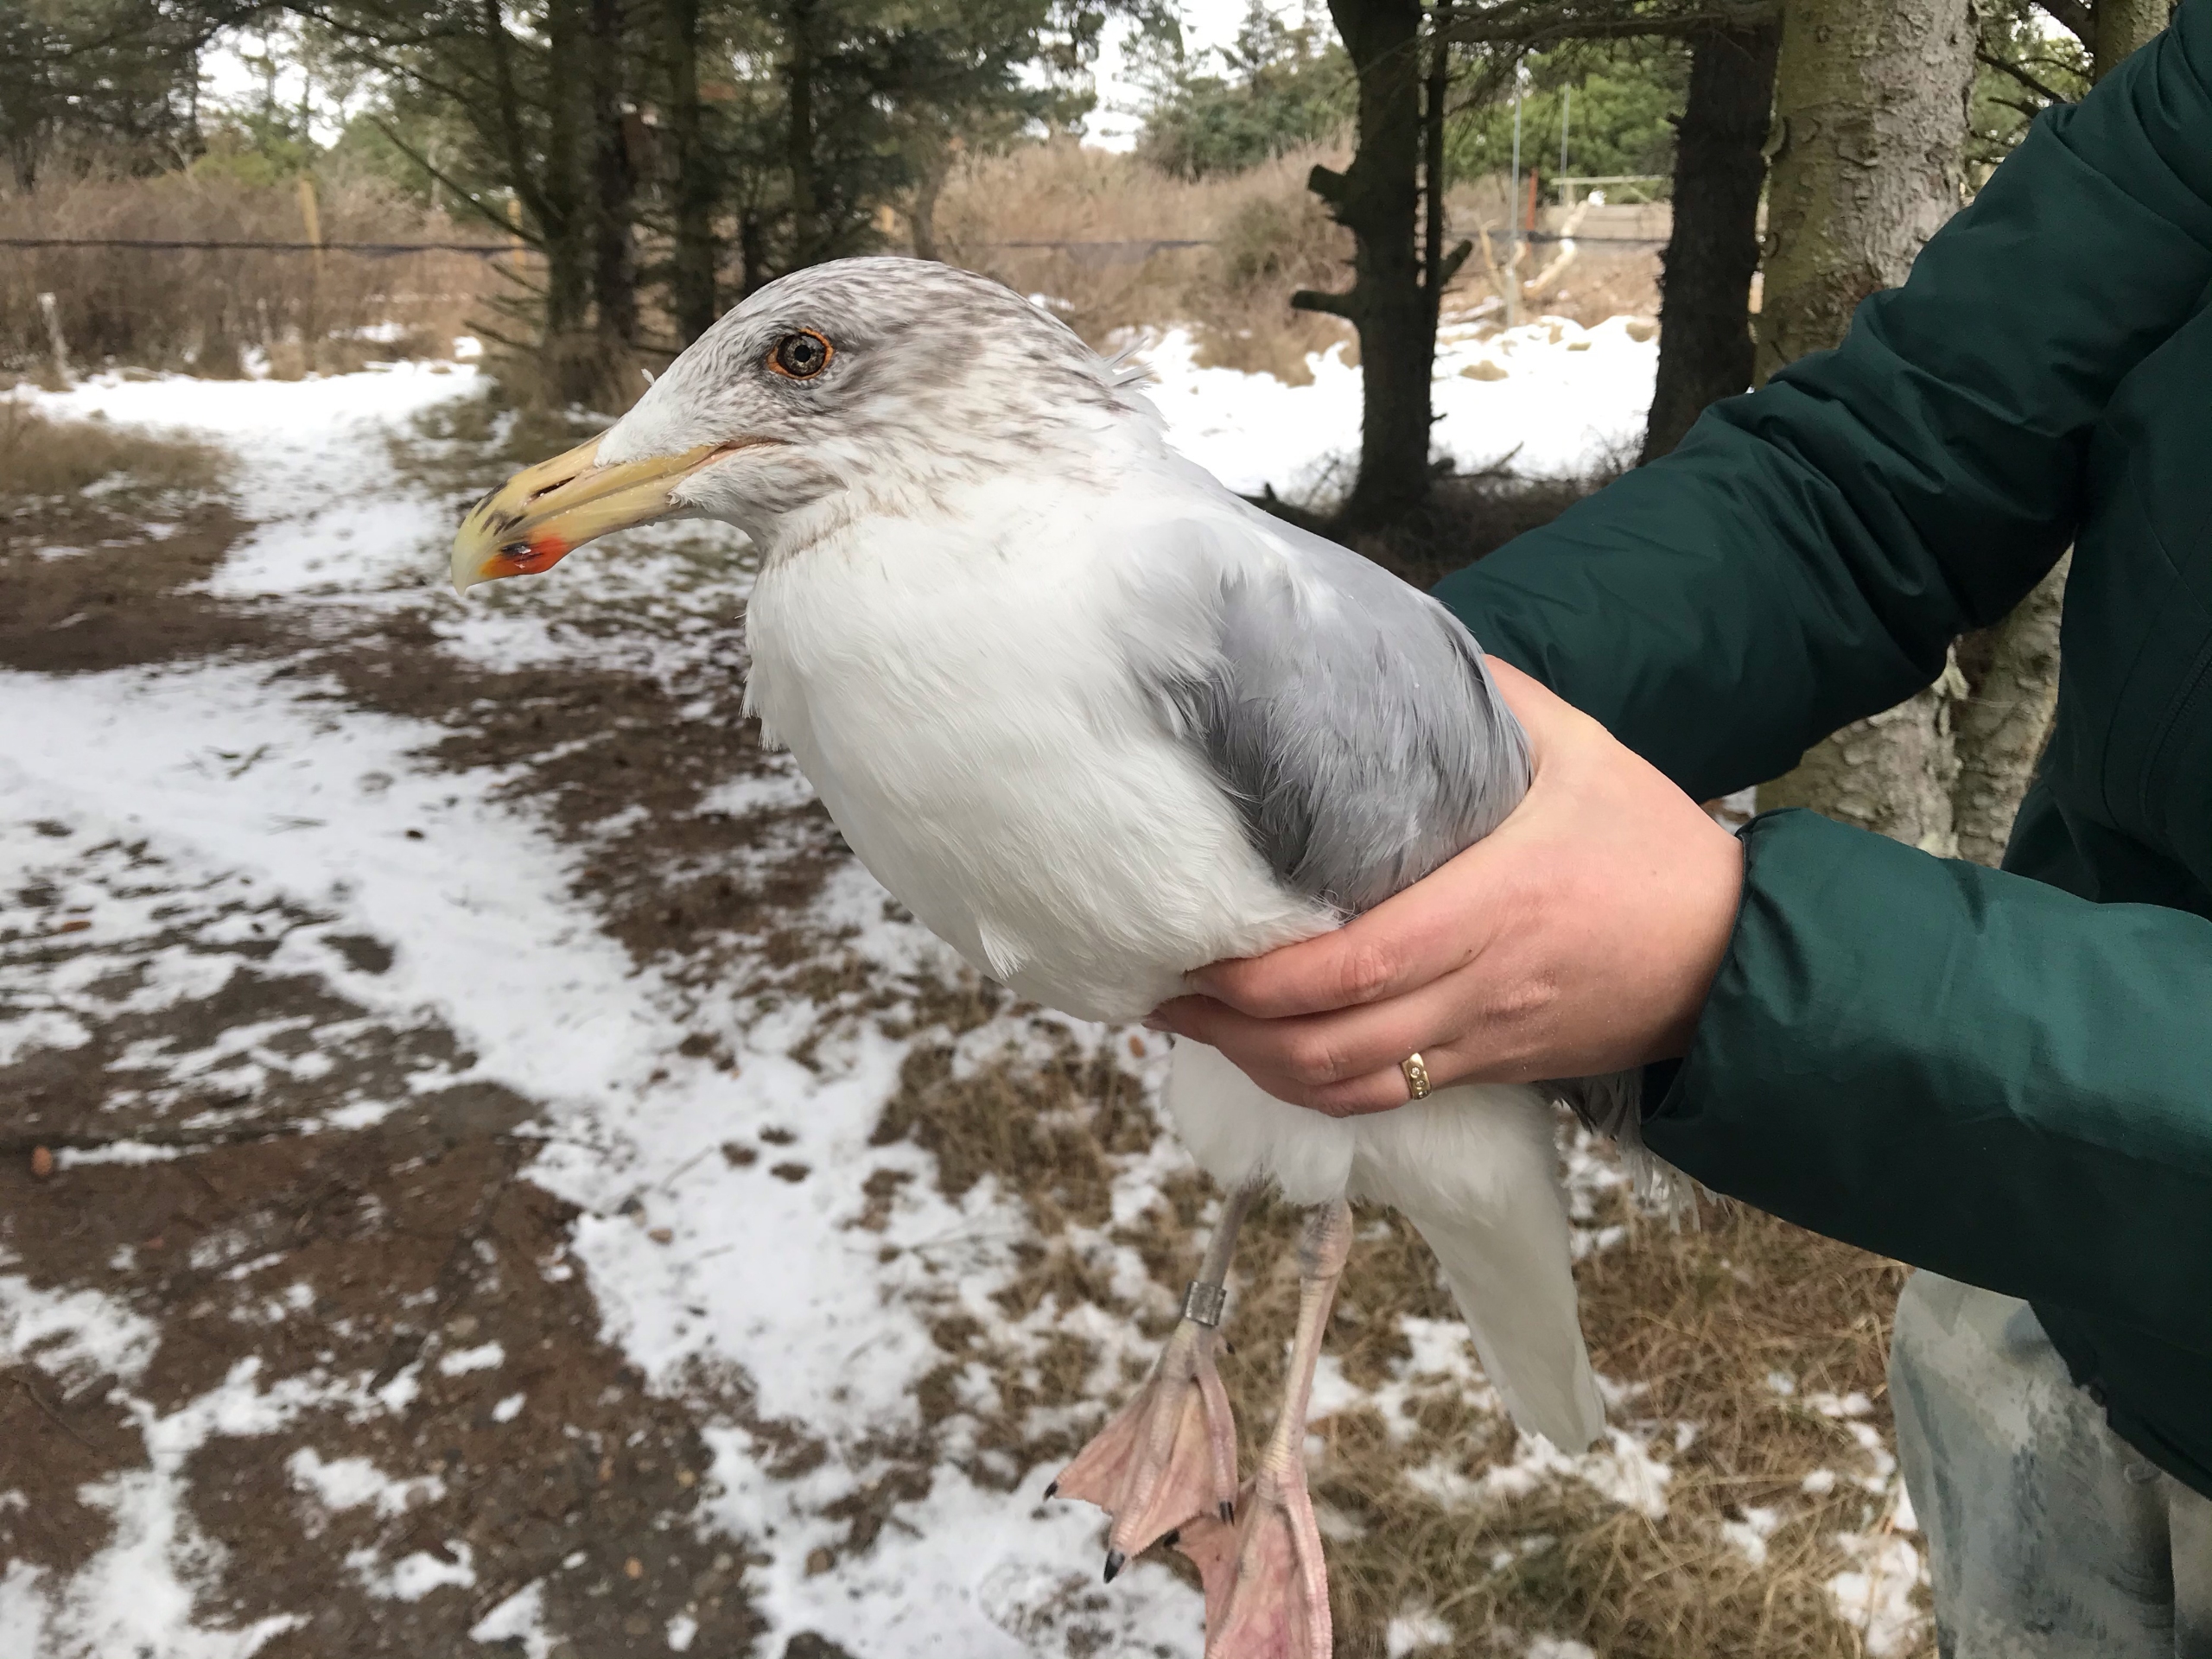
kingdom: Animalia
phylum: Chordata
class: Aves
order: Charadriiformes
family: Laridae
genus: Larus
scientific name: Larus argentatus
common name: Sølvmåge
